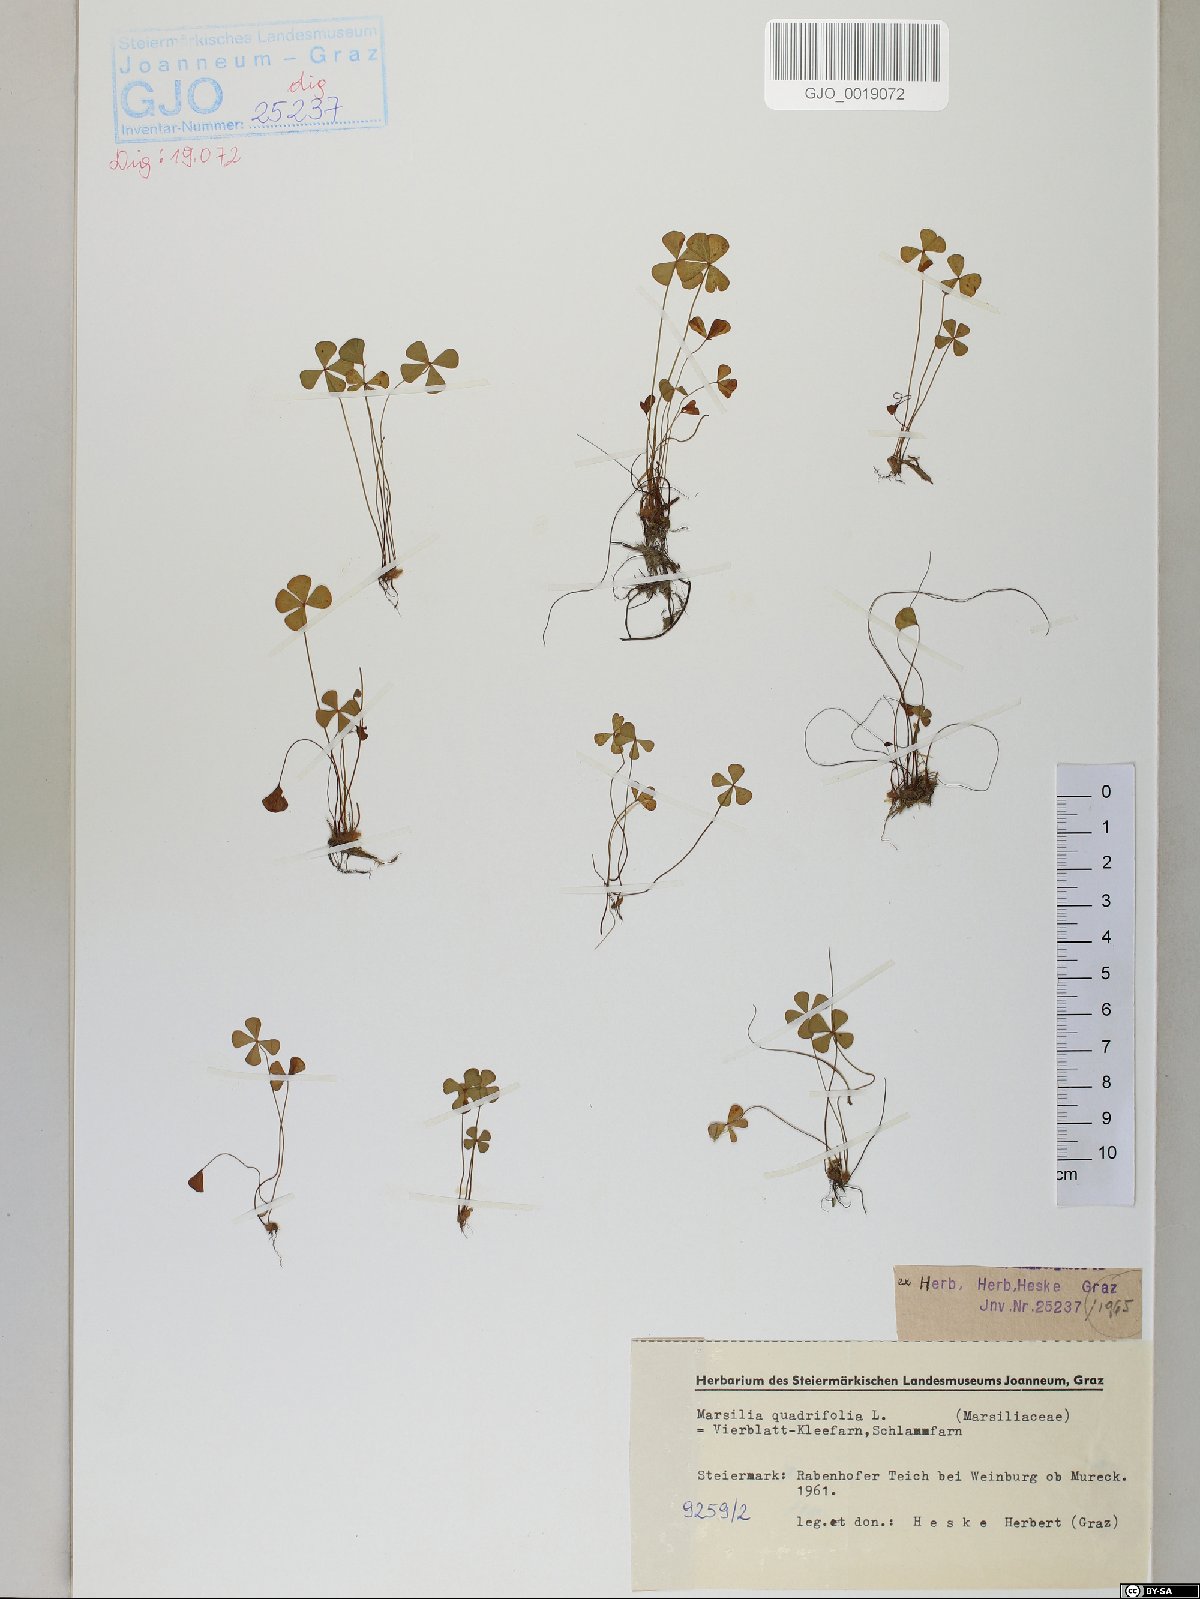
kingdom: Plantae
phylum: Tracheophyta
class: Polypodiopsida
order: Salviniales
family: Marsileaceae
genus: Marsilea
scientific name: Marsilea quadrifolia
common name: Water shamrock
